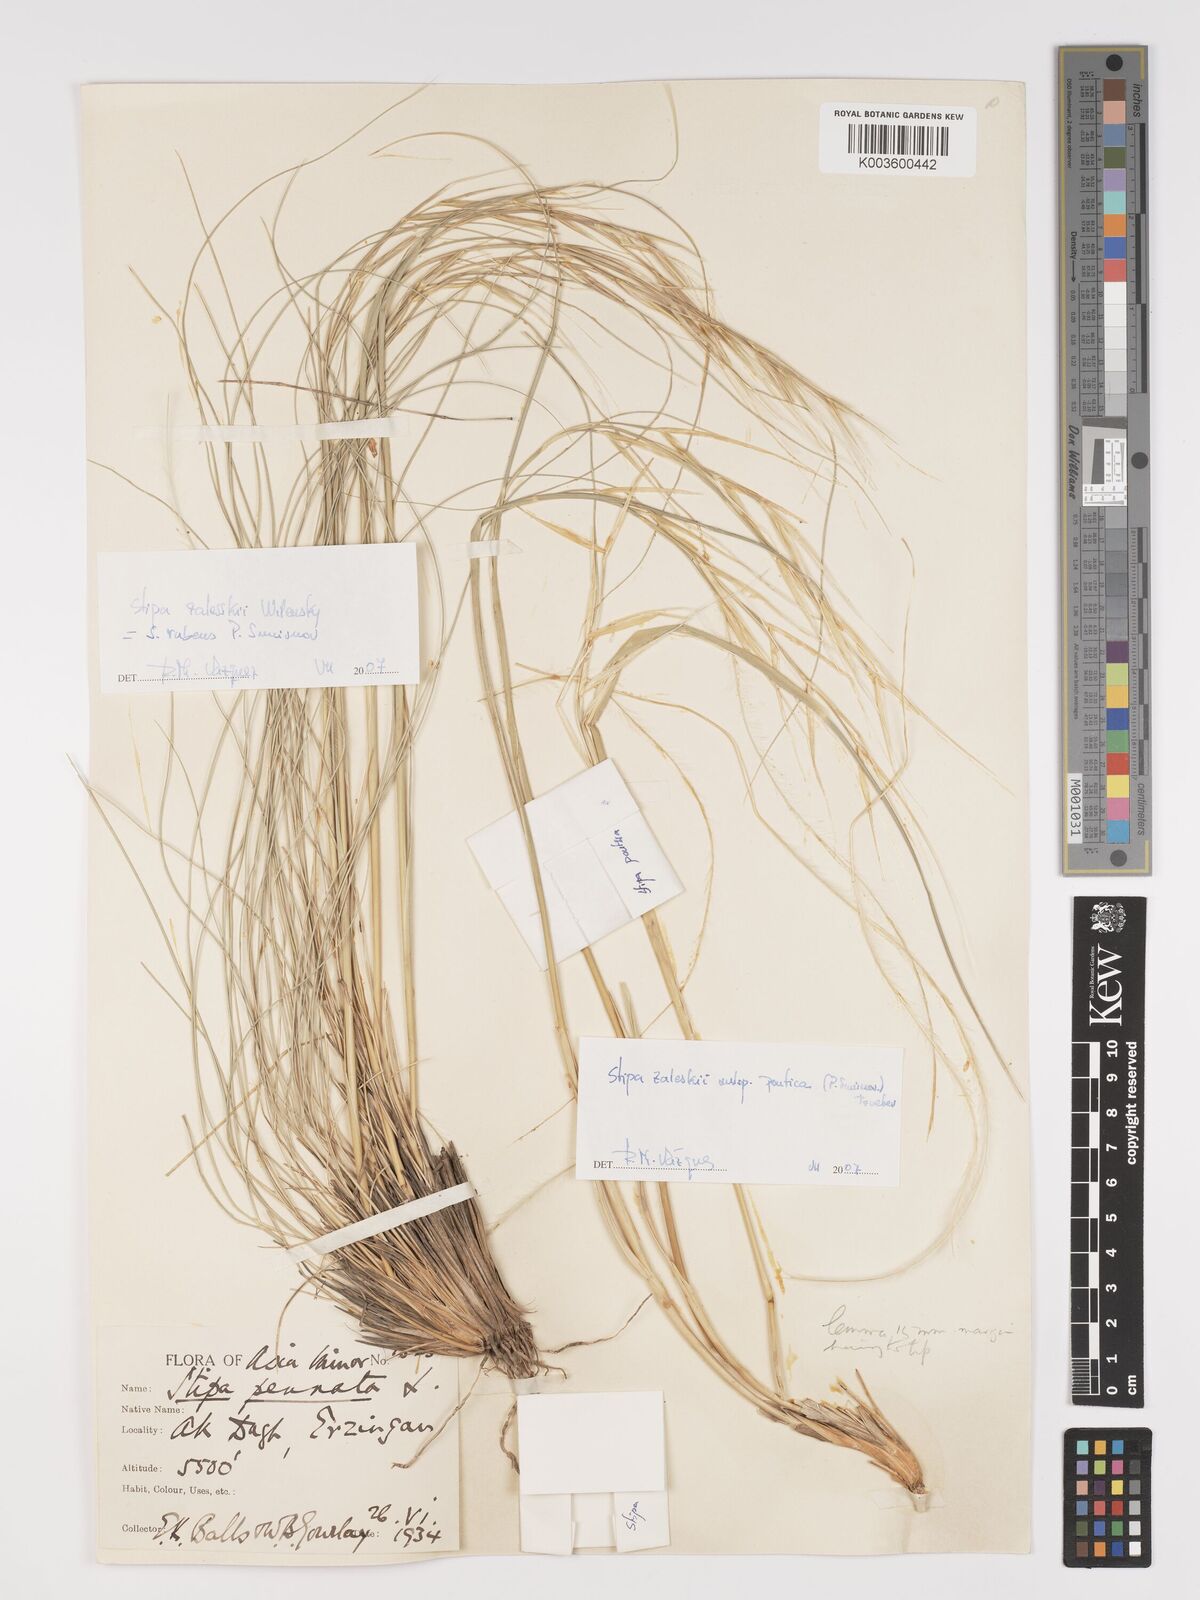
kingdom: Plantae
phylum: Tracheophyta
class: Liliopsida
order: Poales
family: Poaceae
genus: Stipa
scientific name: Stipa zalesskyi
